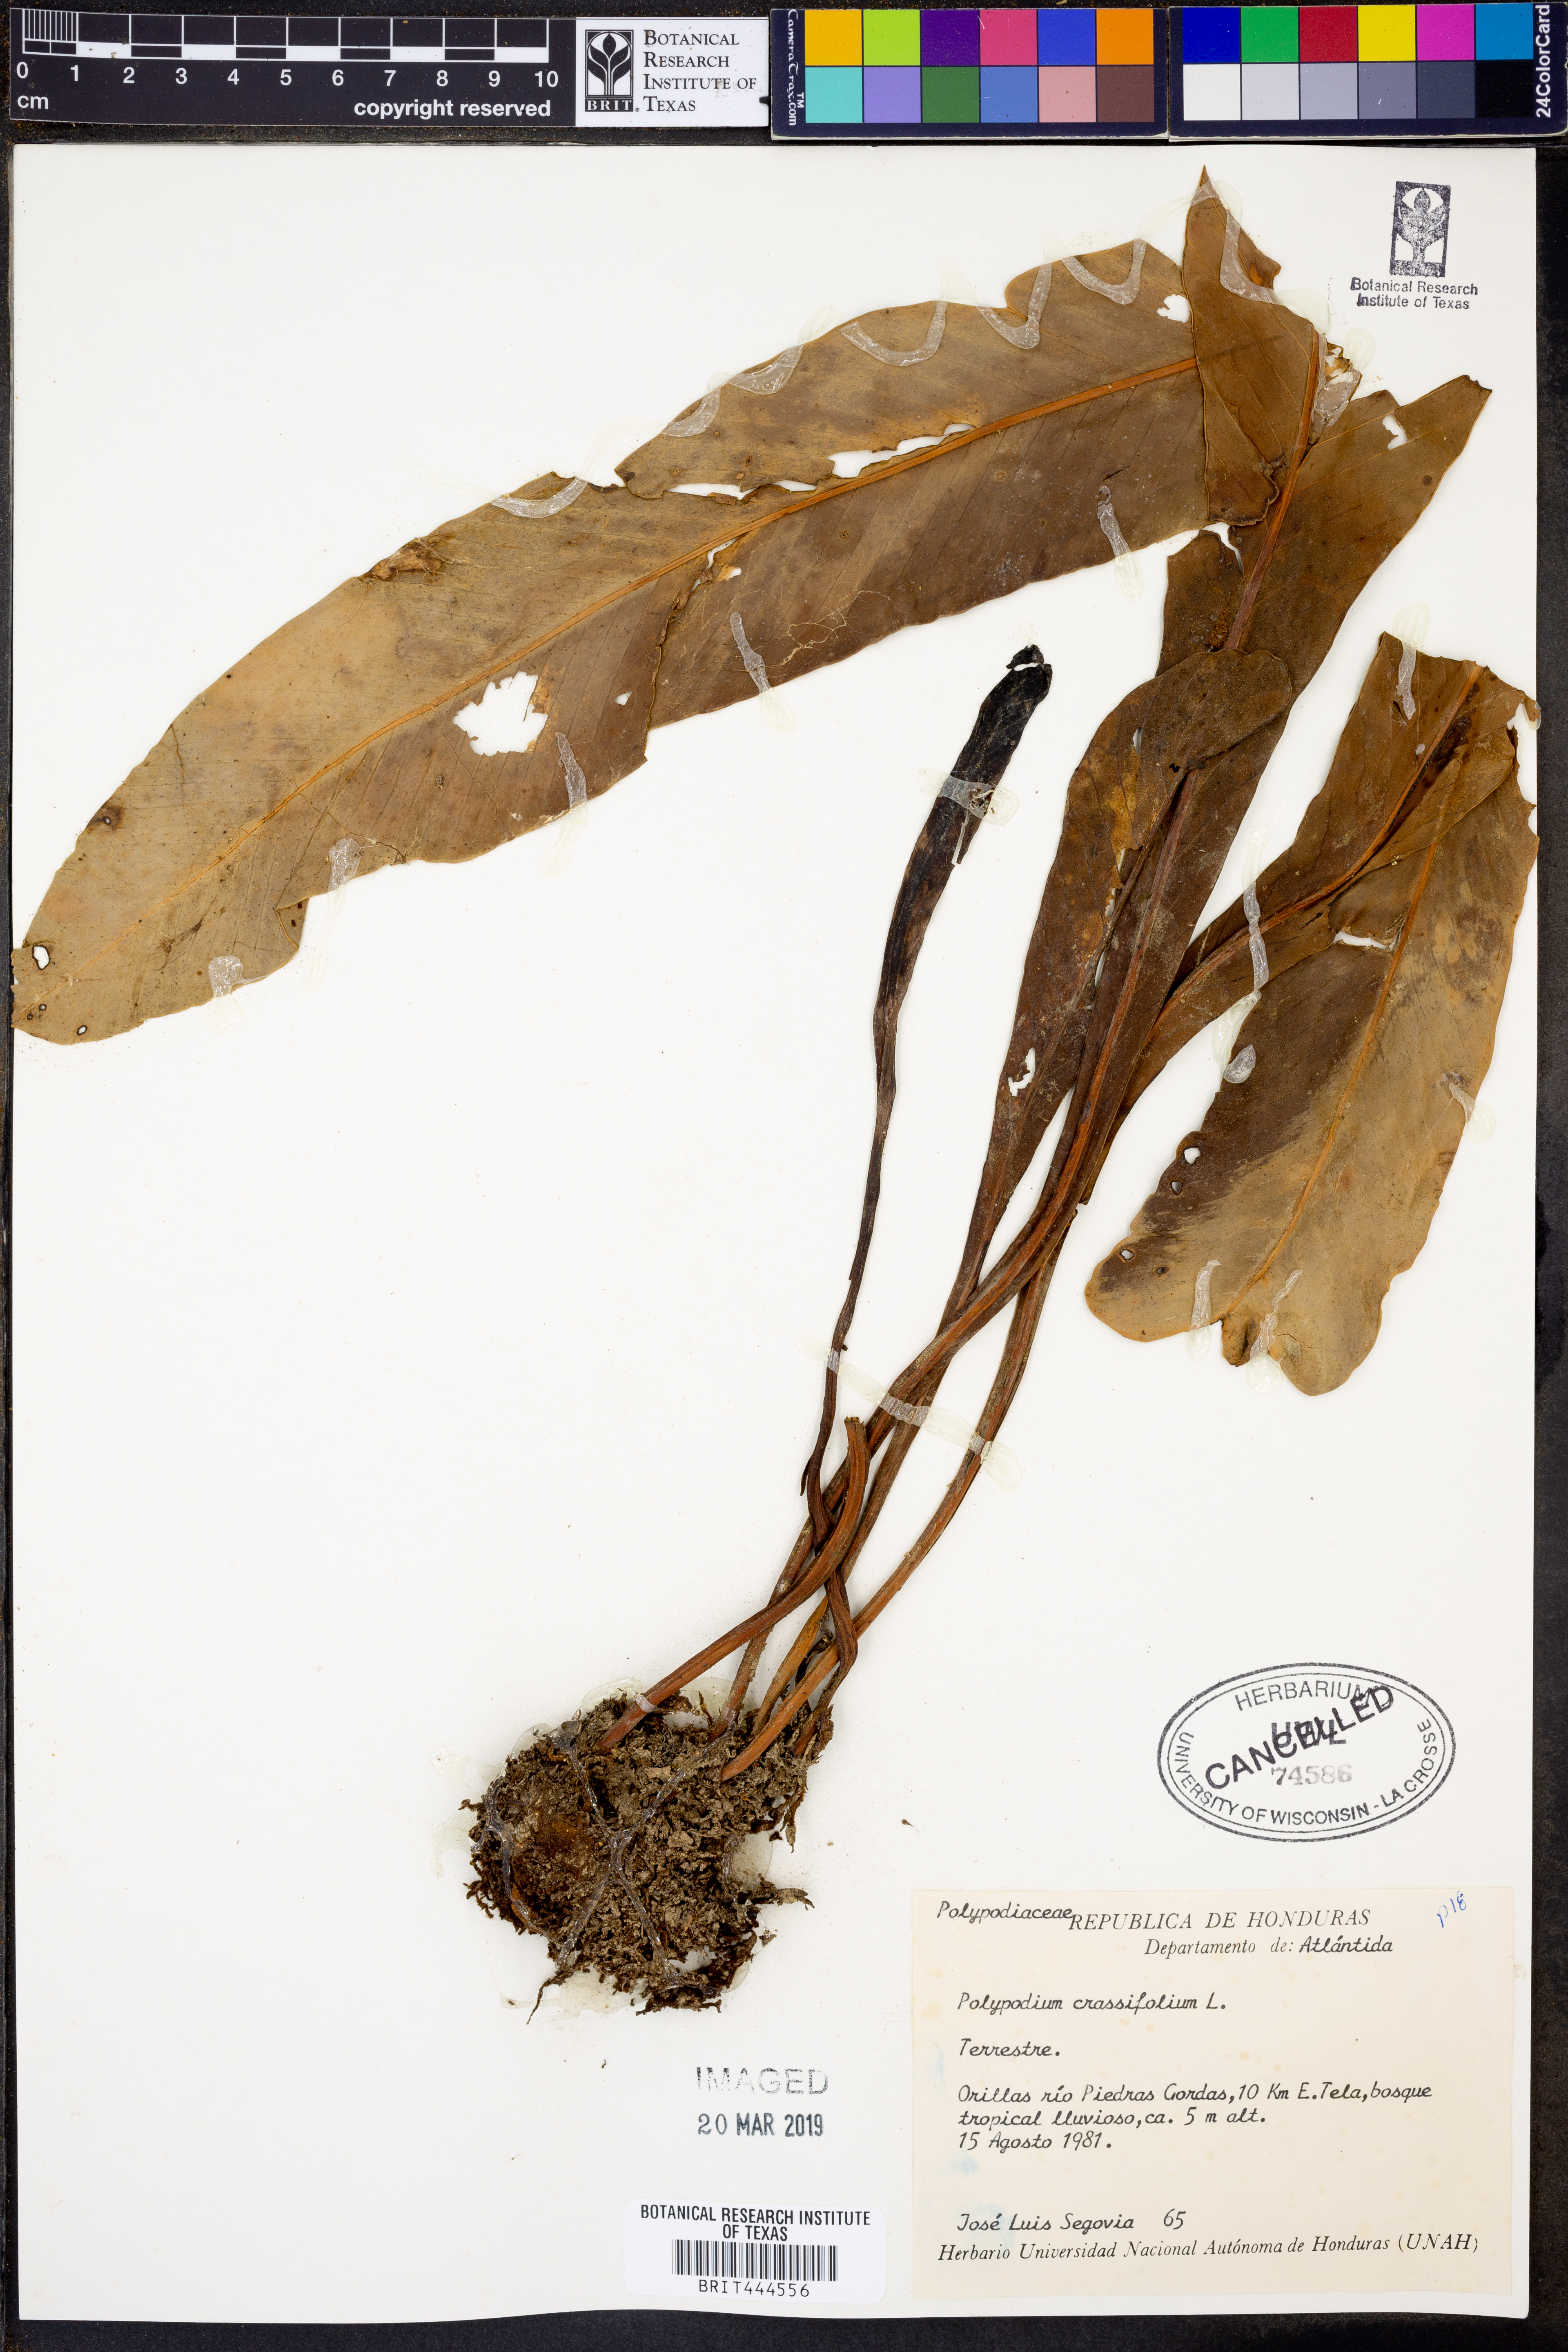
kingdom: Plantae
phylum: Tracheophyta
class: Polypodiopsida
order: Polypodiales
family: Polypodiaceae
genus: Niphidium
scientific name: Niphidium crassifolium
